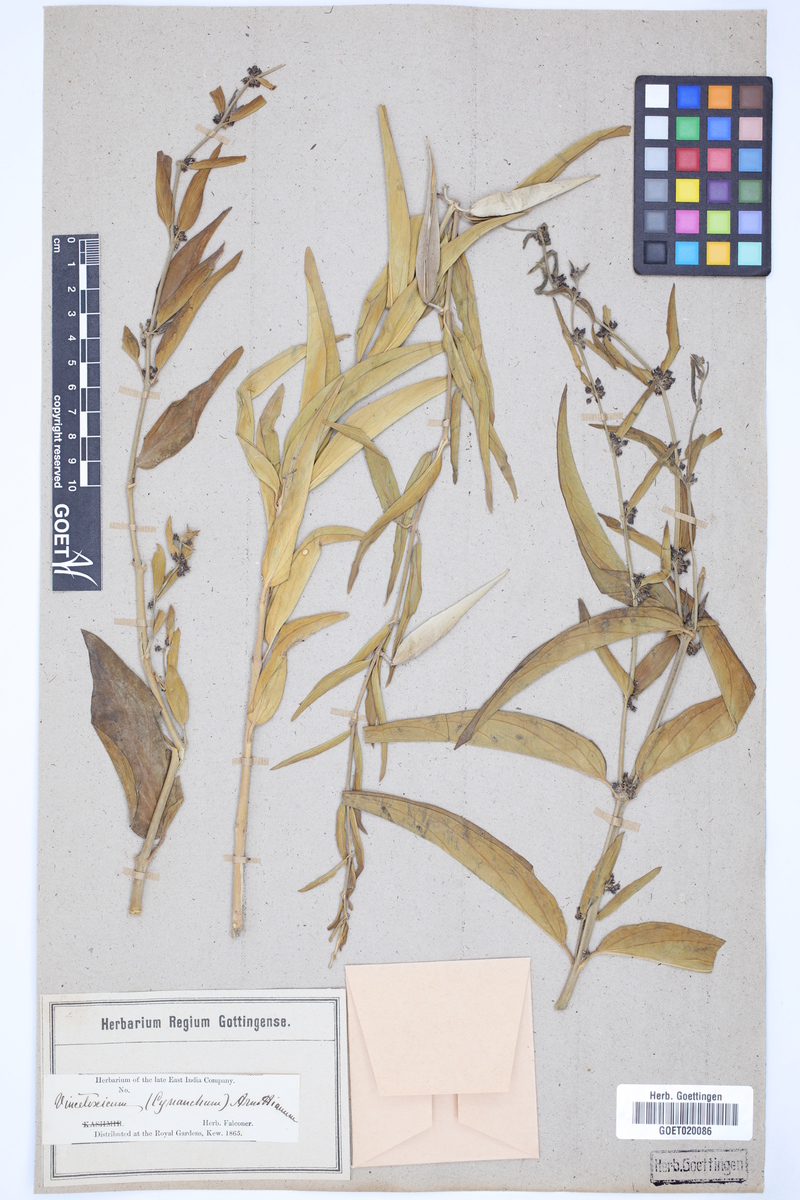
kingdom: Plantae
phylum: Tracheophyta
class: Magnoliopsida
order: Gentianales
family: Apocynaceae
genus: Vincetoxicum
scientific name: Vincetoxicum arnottianum
